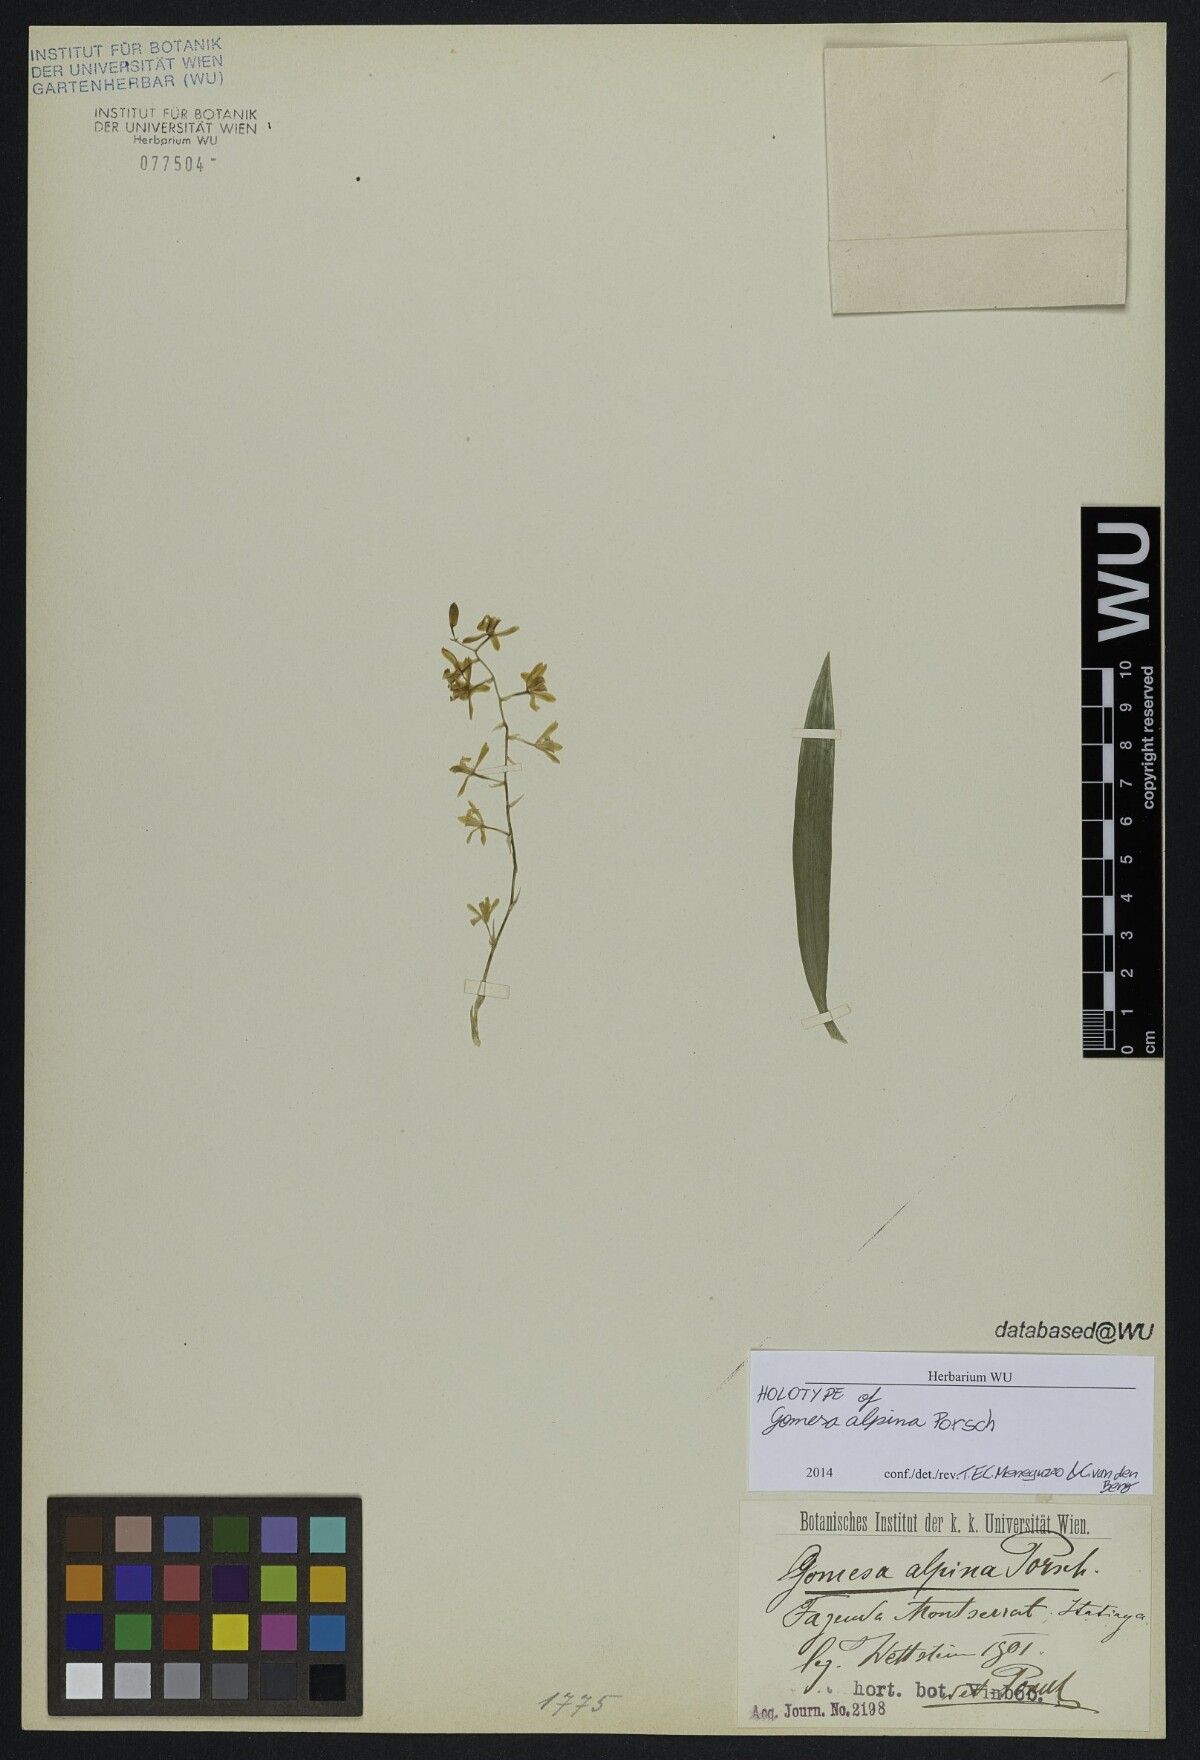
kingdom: Plantae
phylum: Tracheophyta
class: Liliopsida
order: Asparagales
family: Orchidaceae
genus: Gomesa
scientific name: Gomesa alpina
